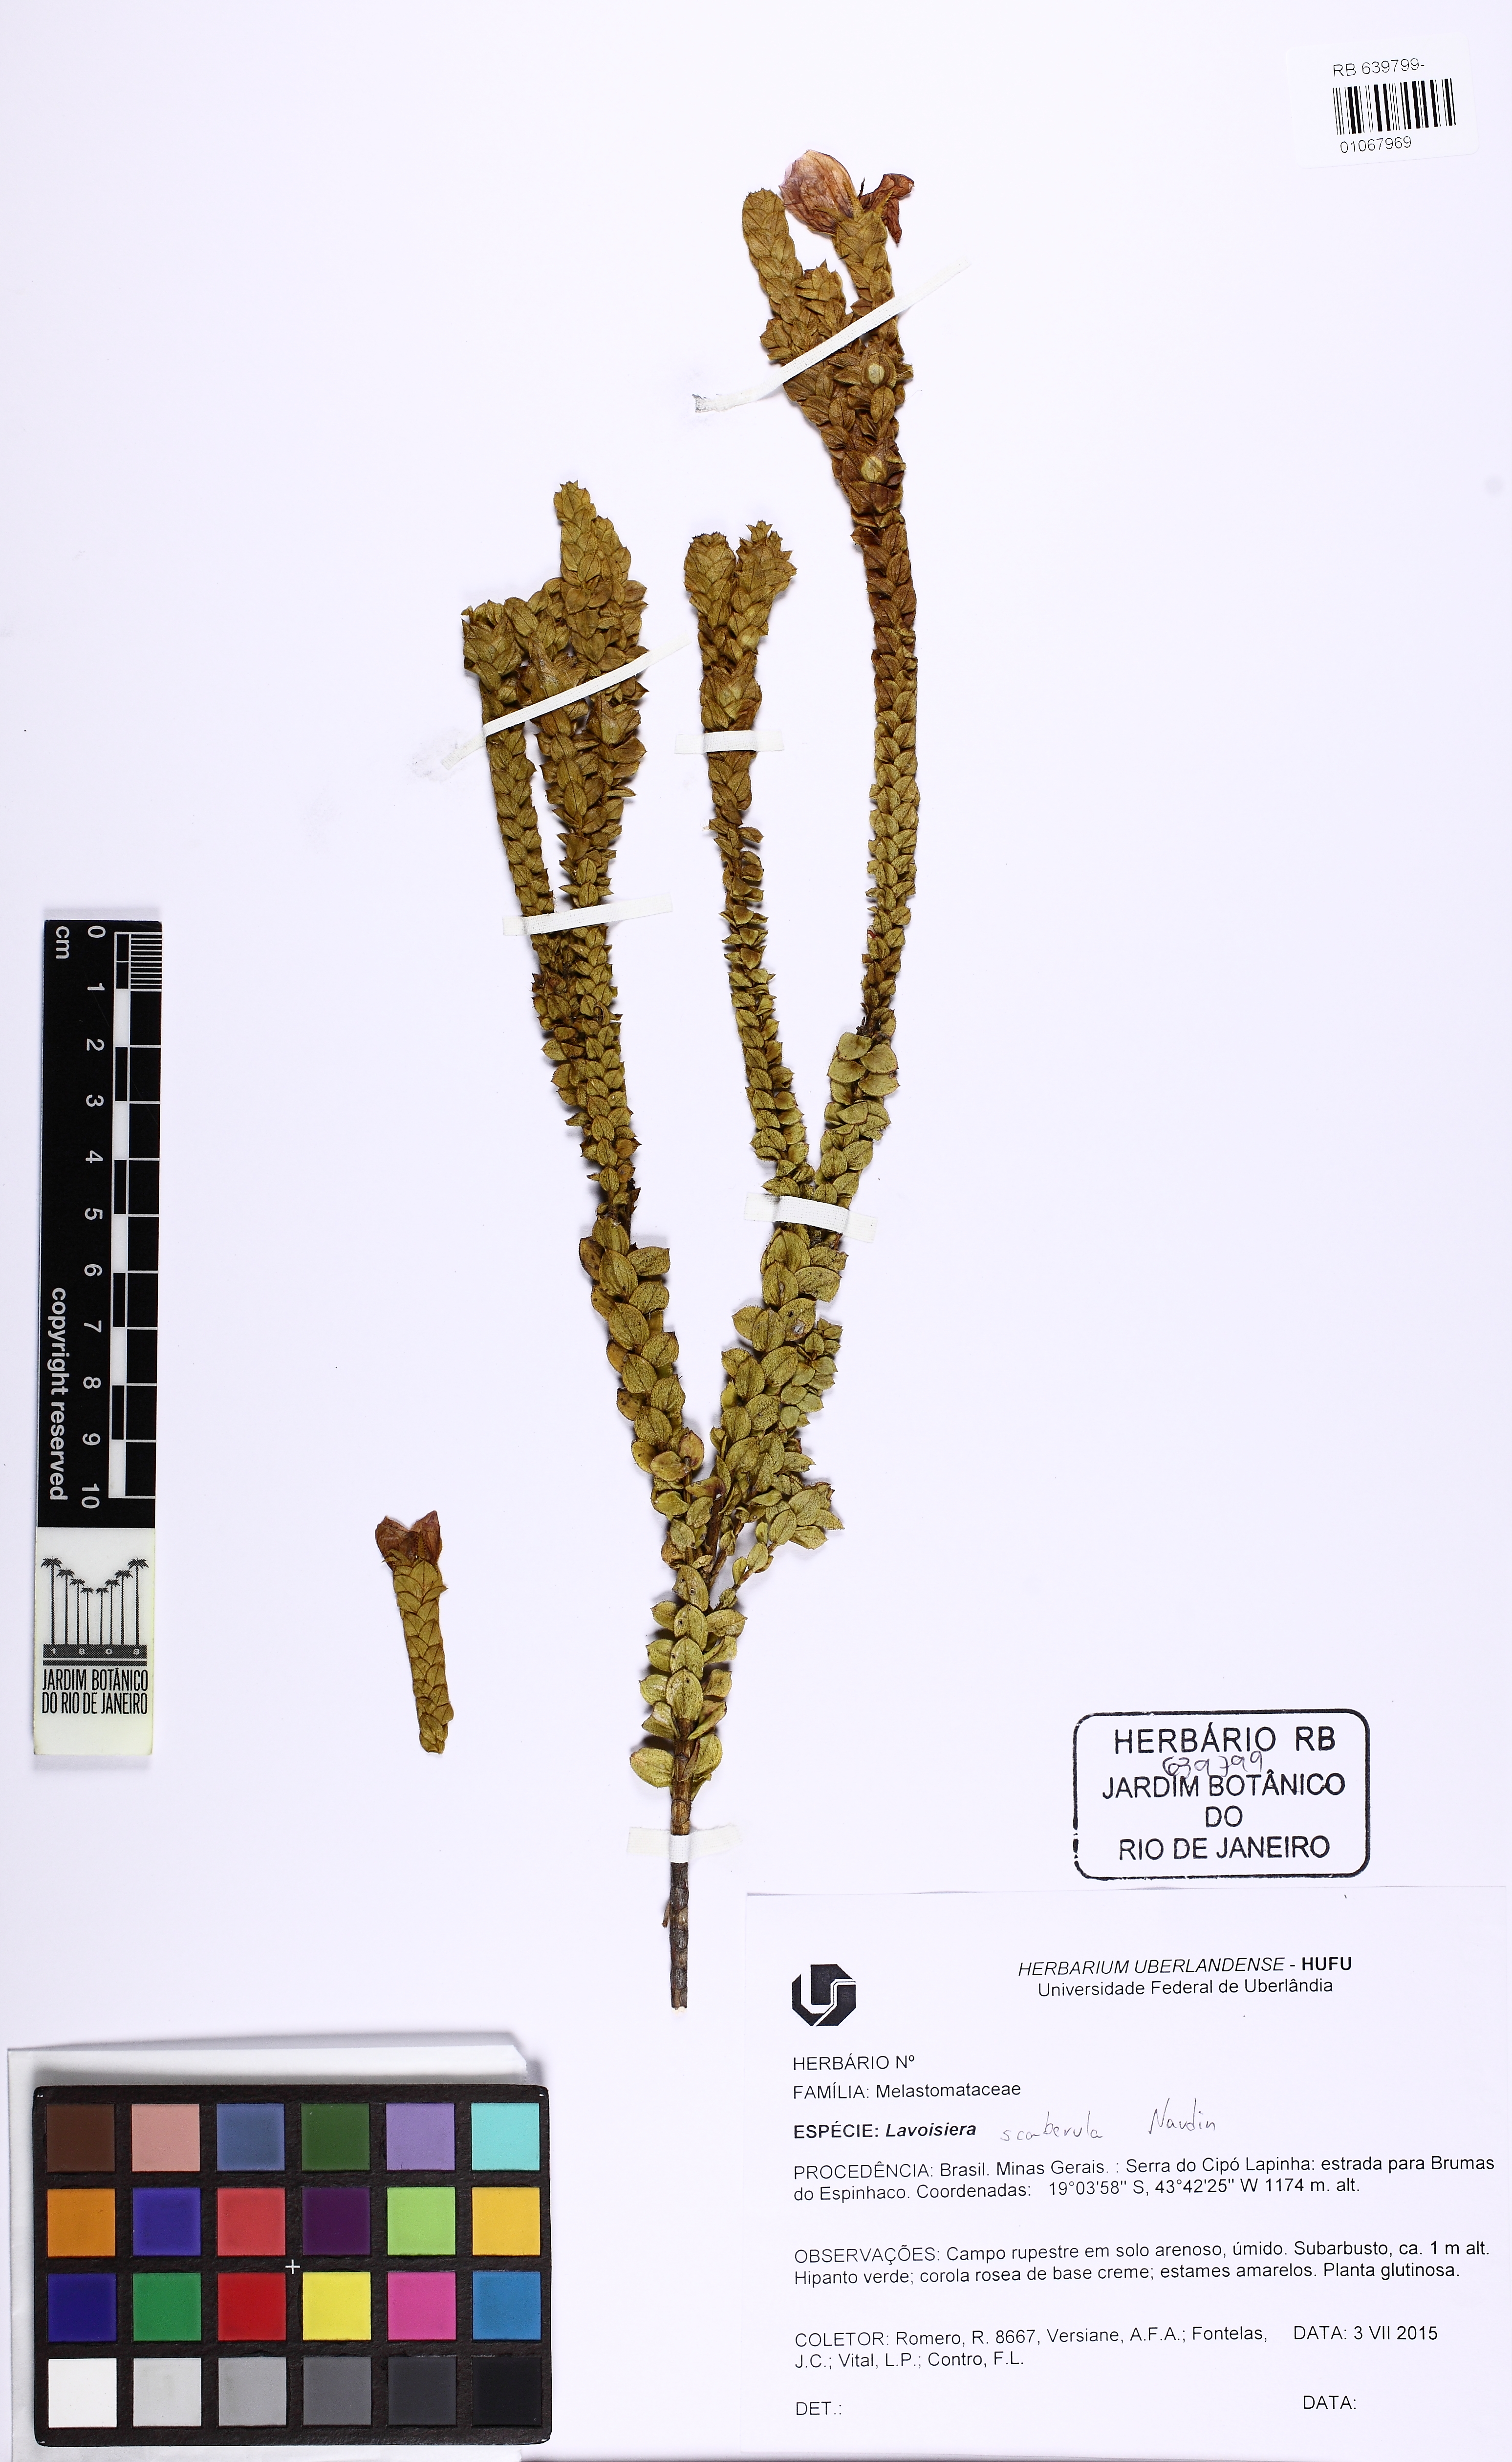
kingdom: Plantae
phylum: Tracheophyta
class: Magnoliopsida
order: Myrtales
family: Melastomataceae
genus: Microlicia
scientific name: Microlicia scaberula
